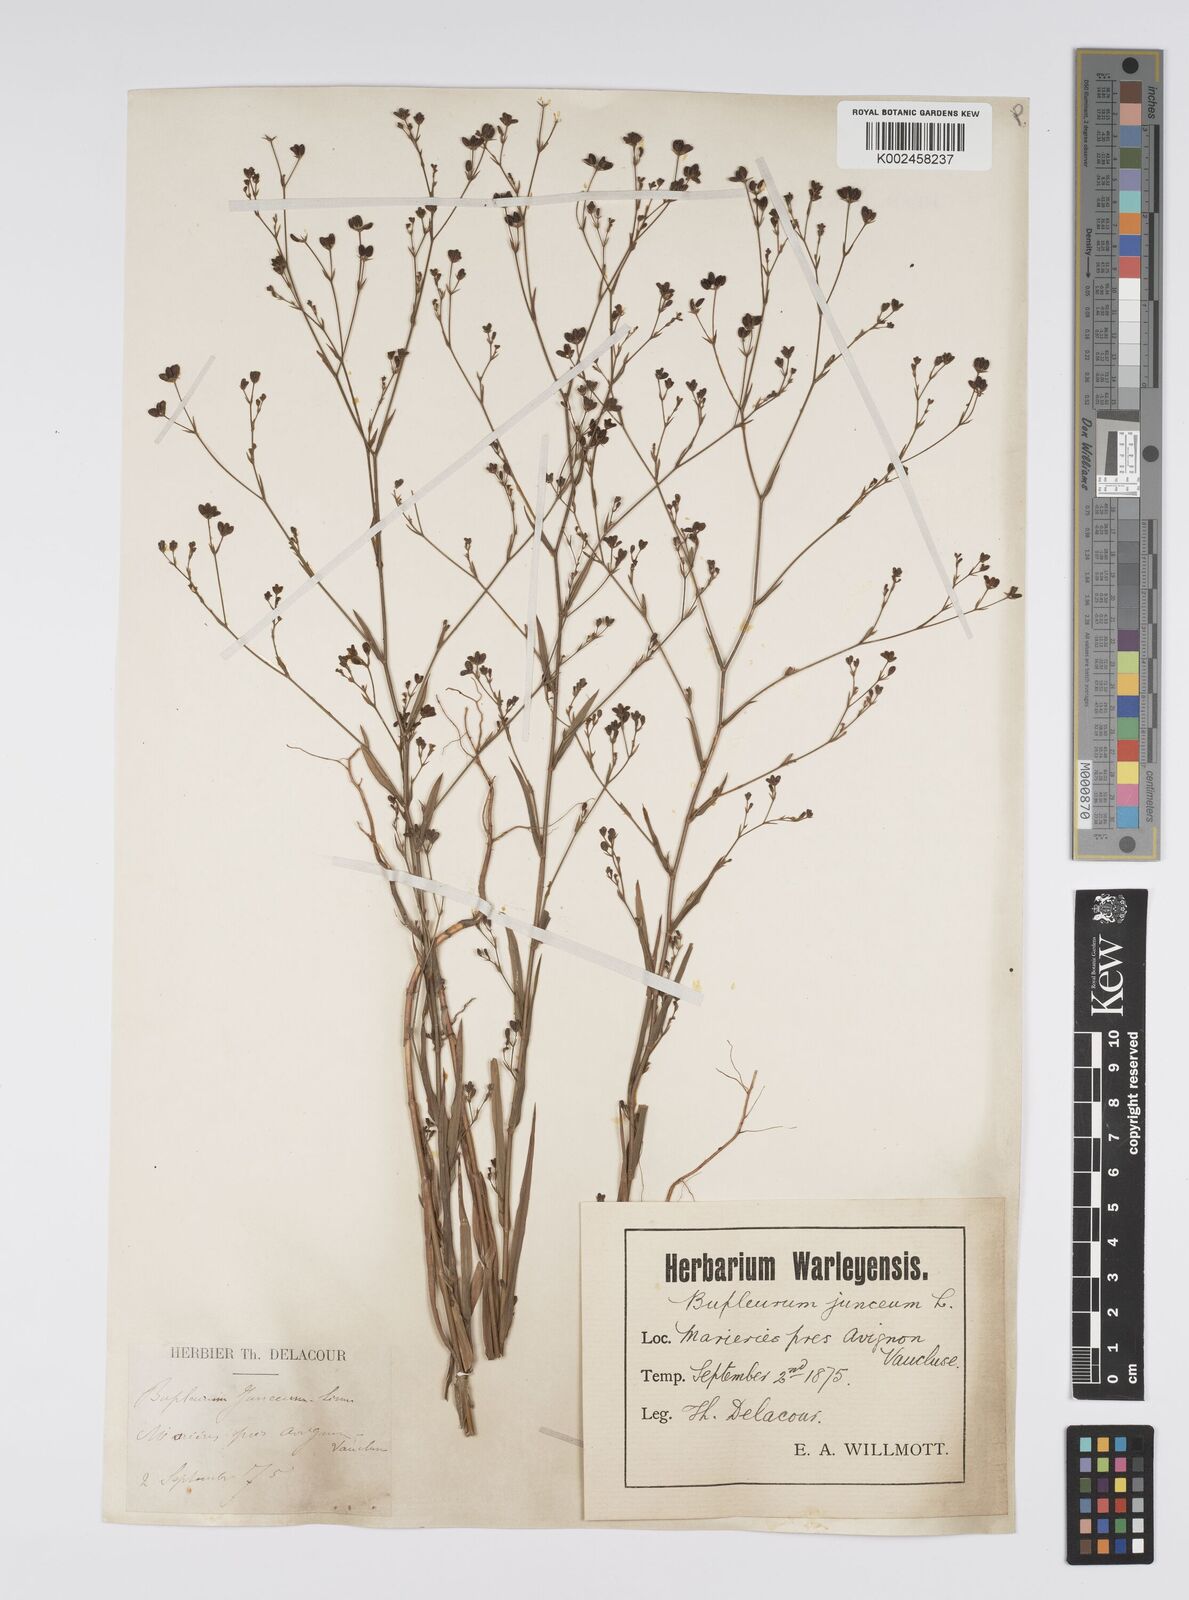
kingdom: Plantae
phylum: Tracheophyta
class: Magnoliopsida
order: Apiales
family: Apiaceae
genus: Bupleurum
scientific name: Bupleurum praealtum
